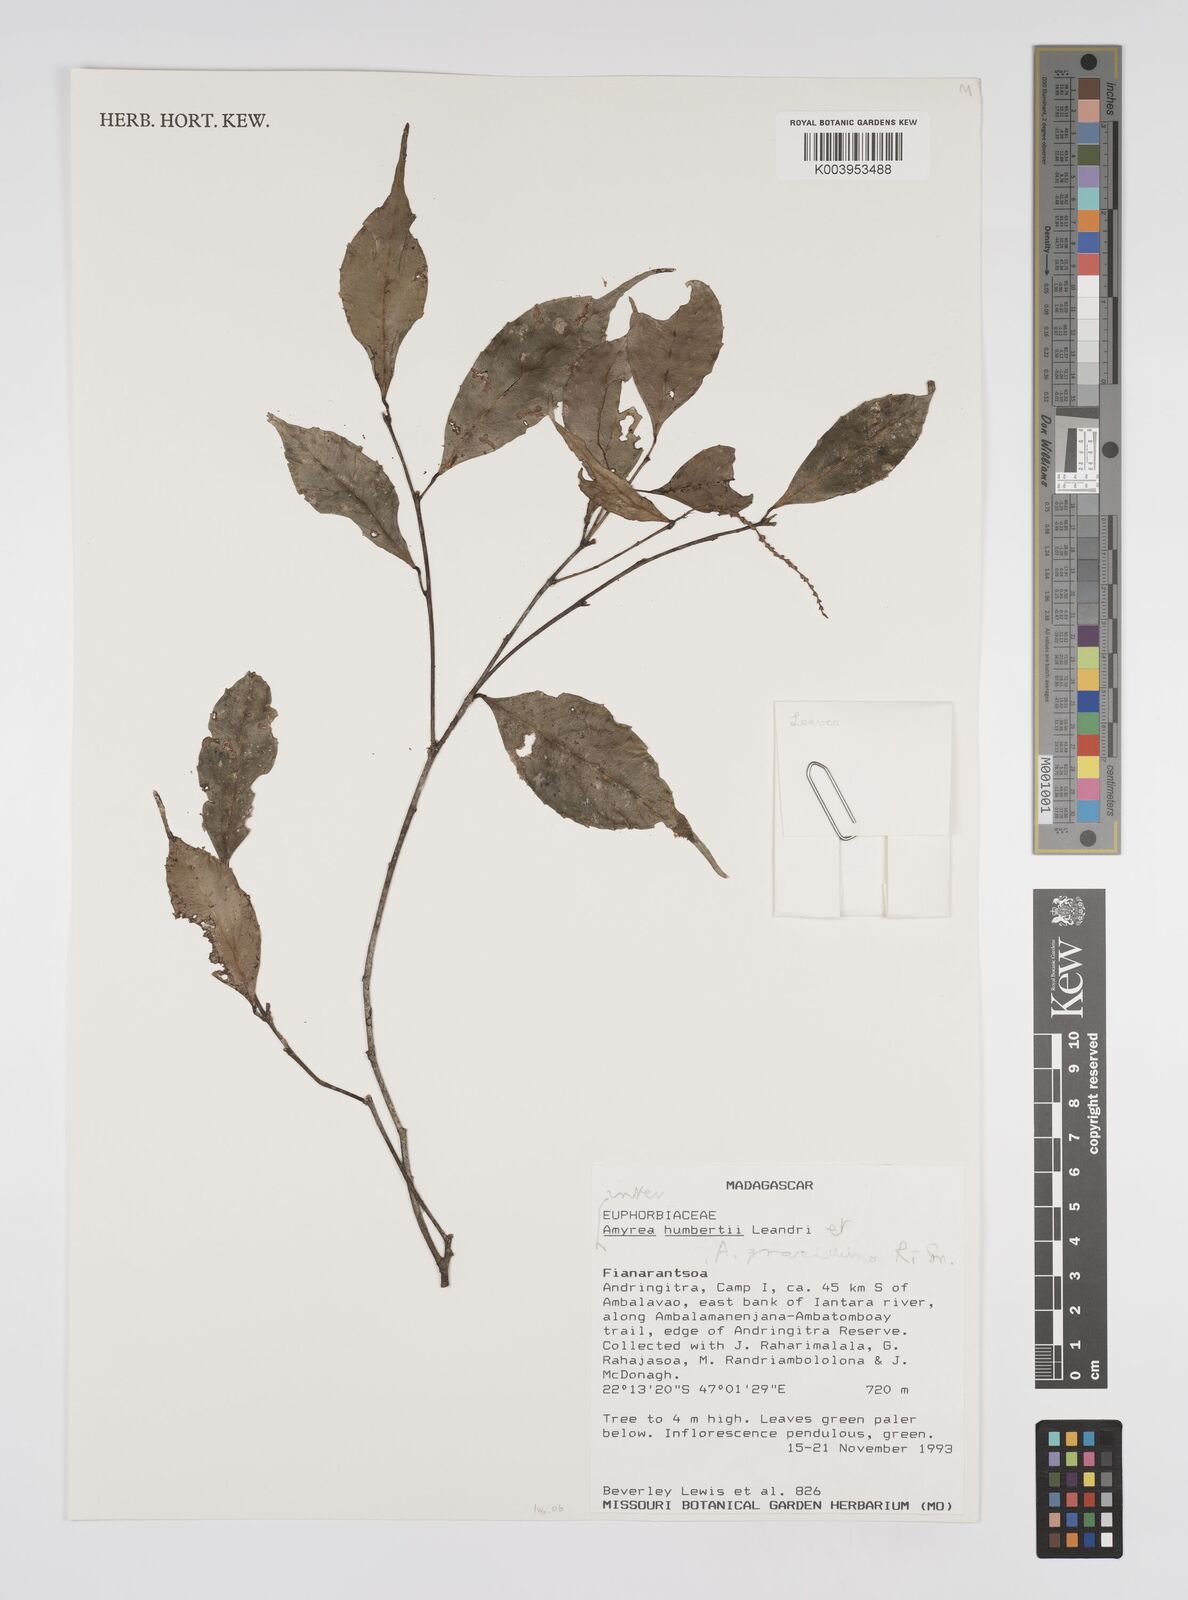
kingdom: Plantae
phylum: Tracheophyta
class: Magnoliopsida
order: Malpighiales
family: Euphorbiaceae
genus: Amyrea
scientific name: Amyrea humbertii
